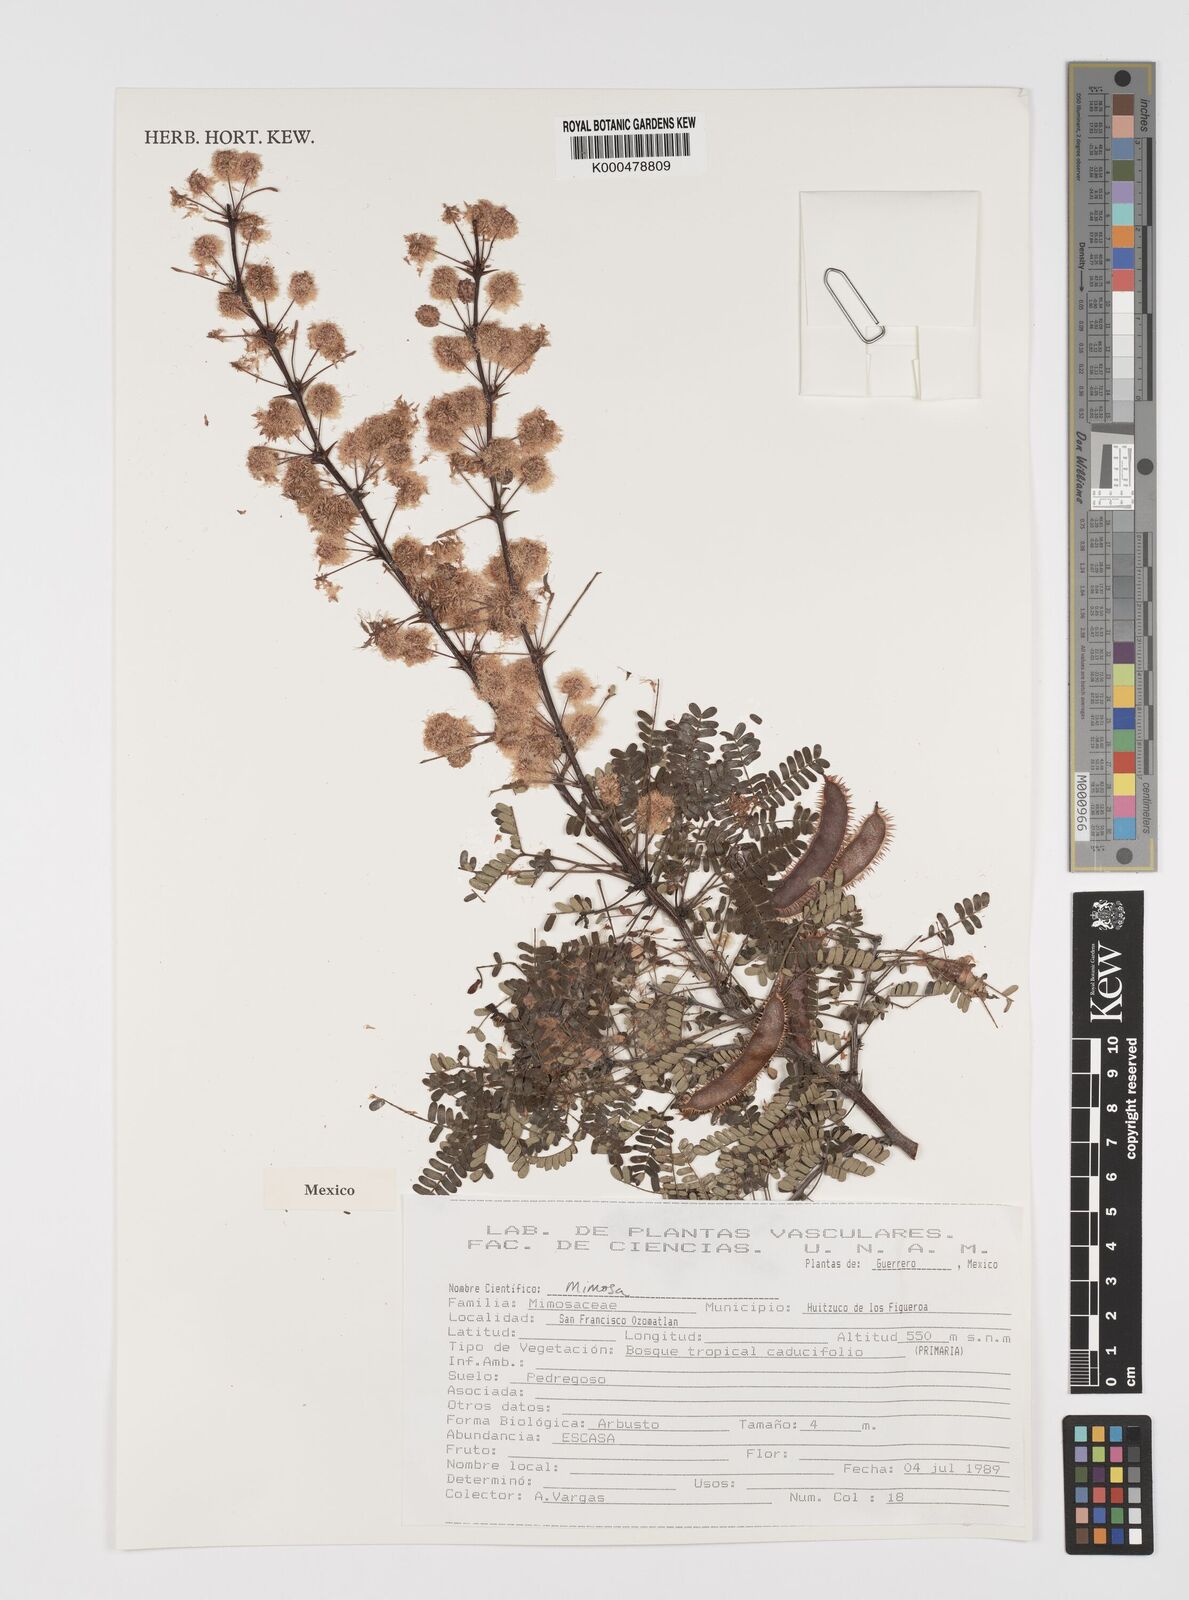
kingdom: Plantae
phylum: Tracheophyta
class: Magnoliopsida
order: Fabales
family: Fabaceae
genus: Mimosa
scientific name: Mimosa
